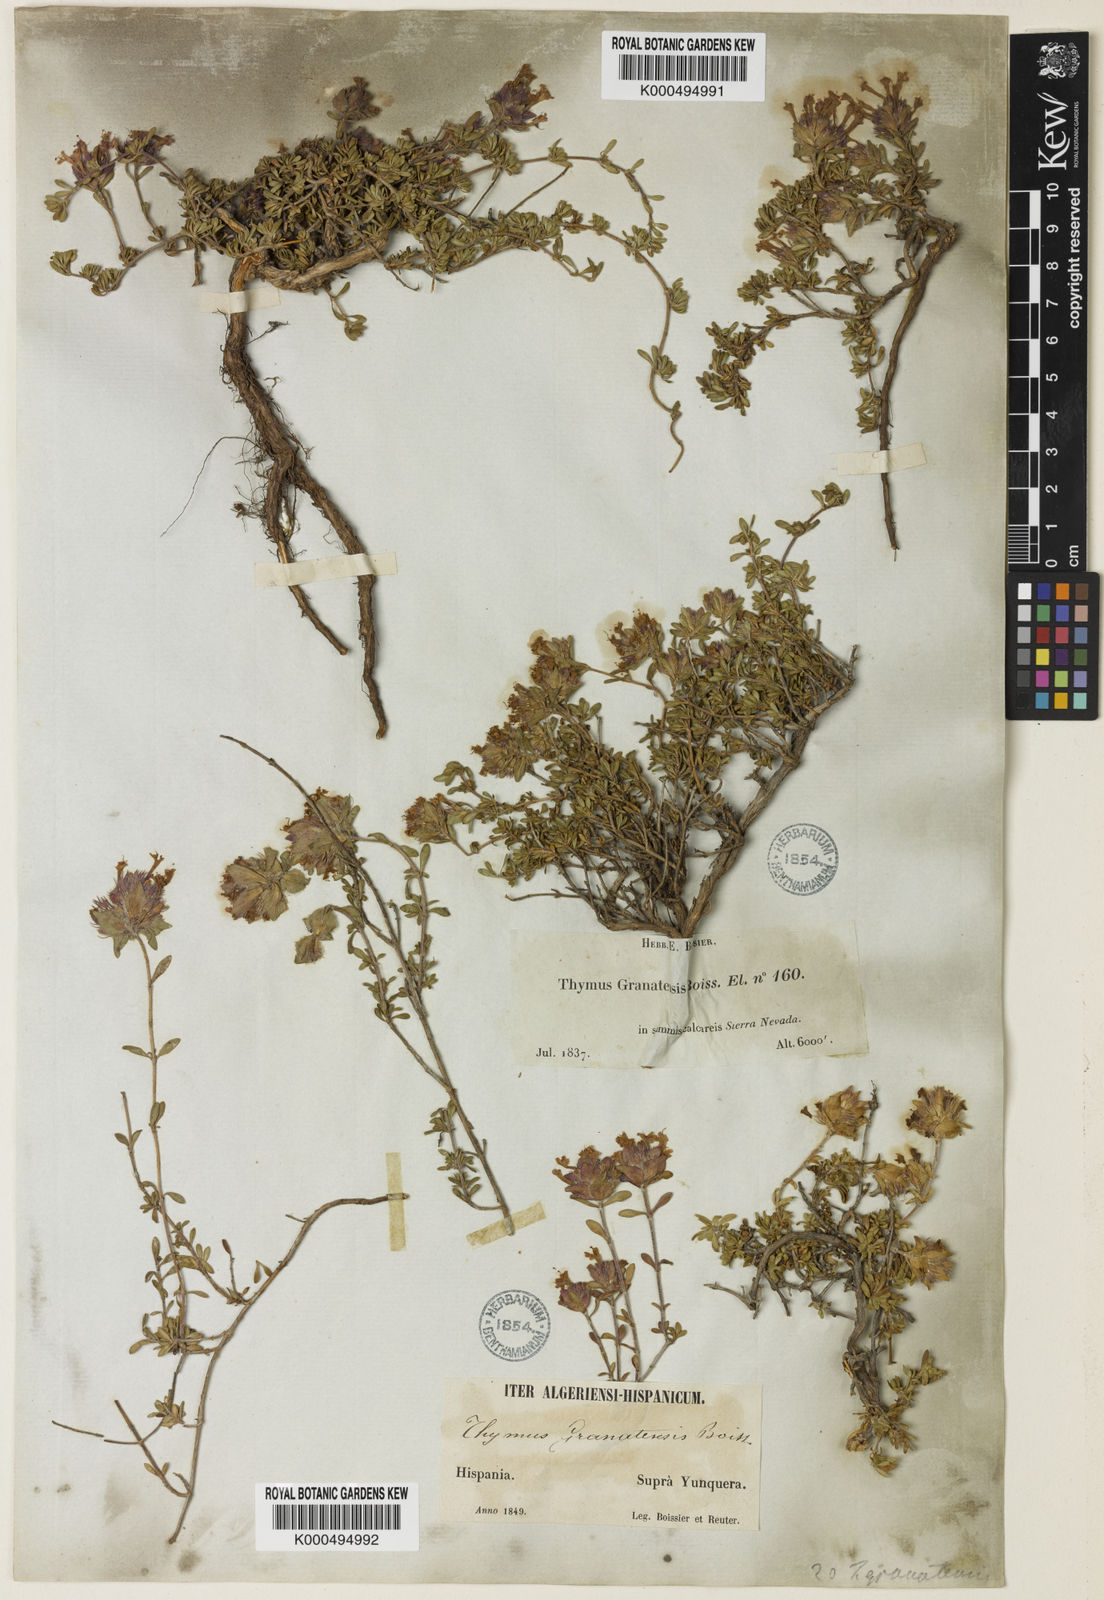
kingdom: Plantae
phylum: Tracheophyta
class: Magnoliopsida
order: Lamiales
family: Lamiaceae
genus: Thymus
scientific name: Thymus granatensis
